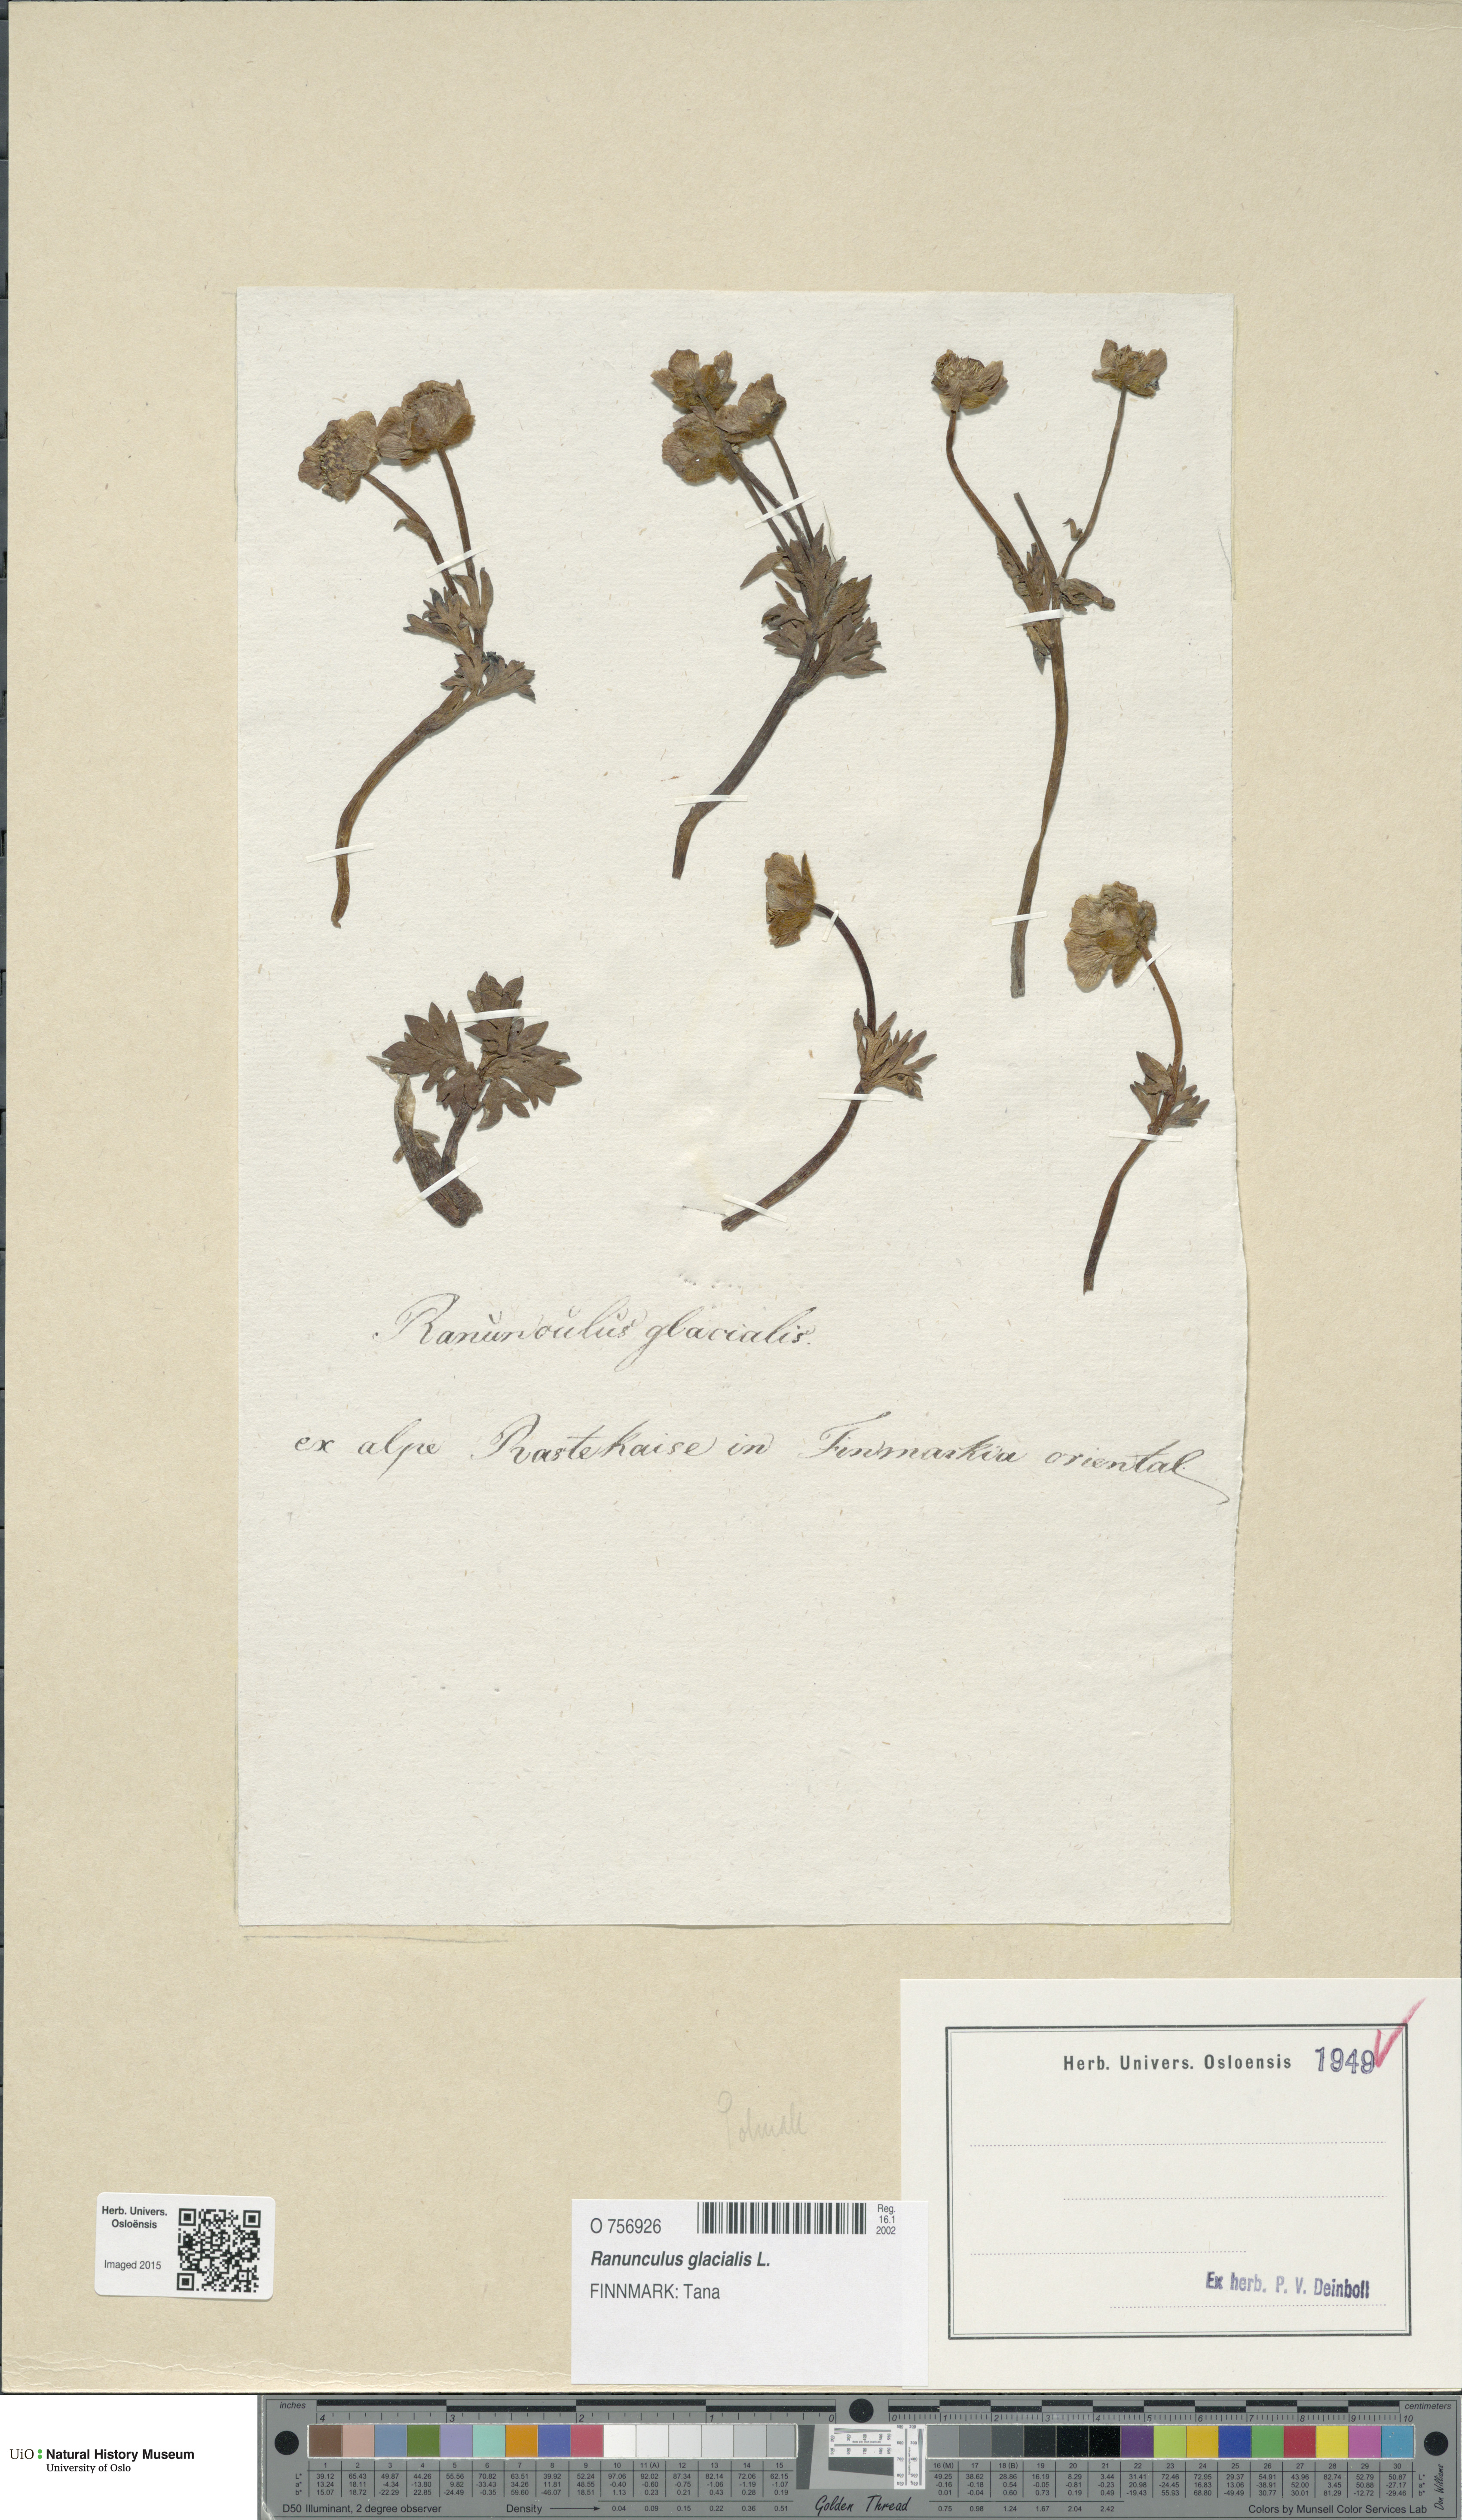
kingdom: Plantae
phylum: Tracheophyta
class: Magnoliopsida
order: Ranunculales
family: Ranunculaceae
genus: Ranunculus
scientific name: Ranunculus glacialis
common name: Glacier buttercup
